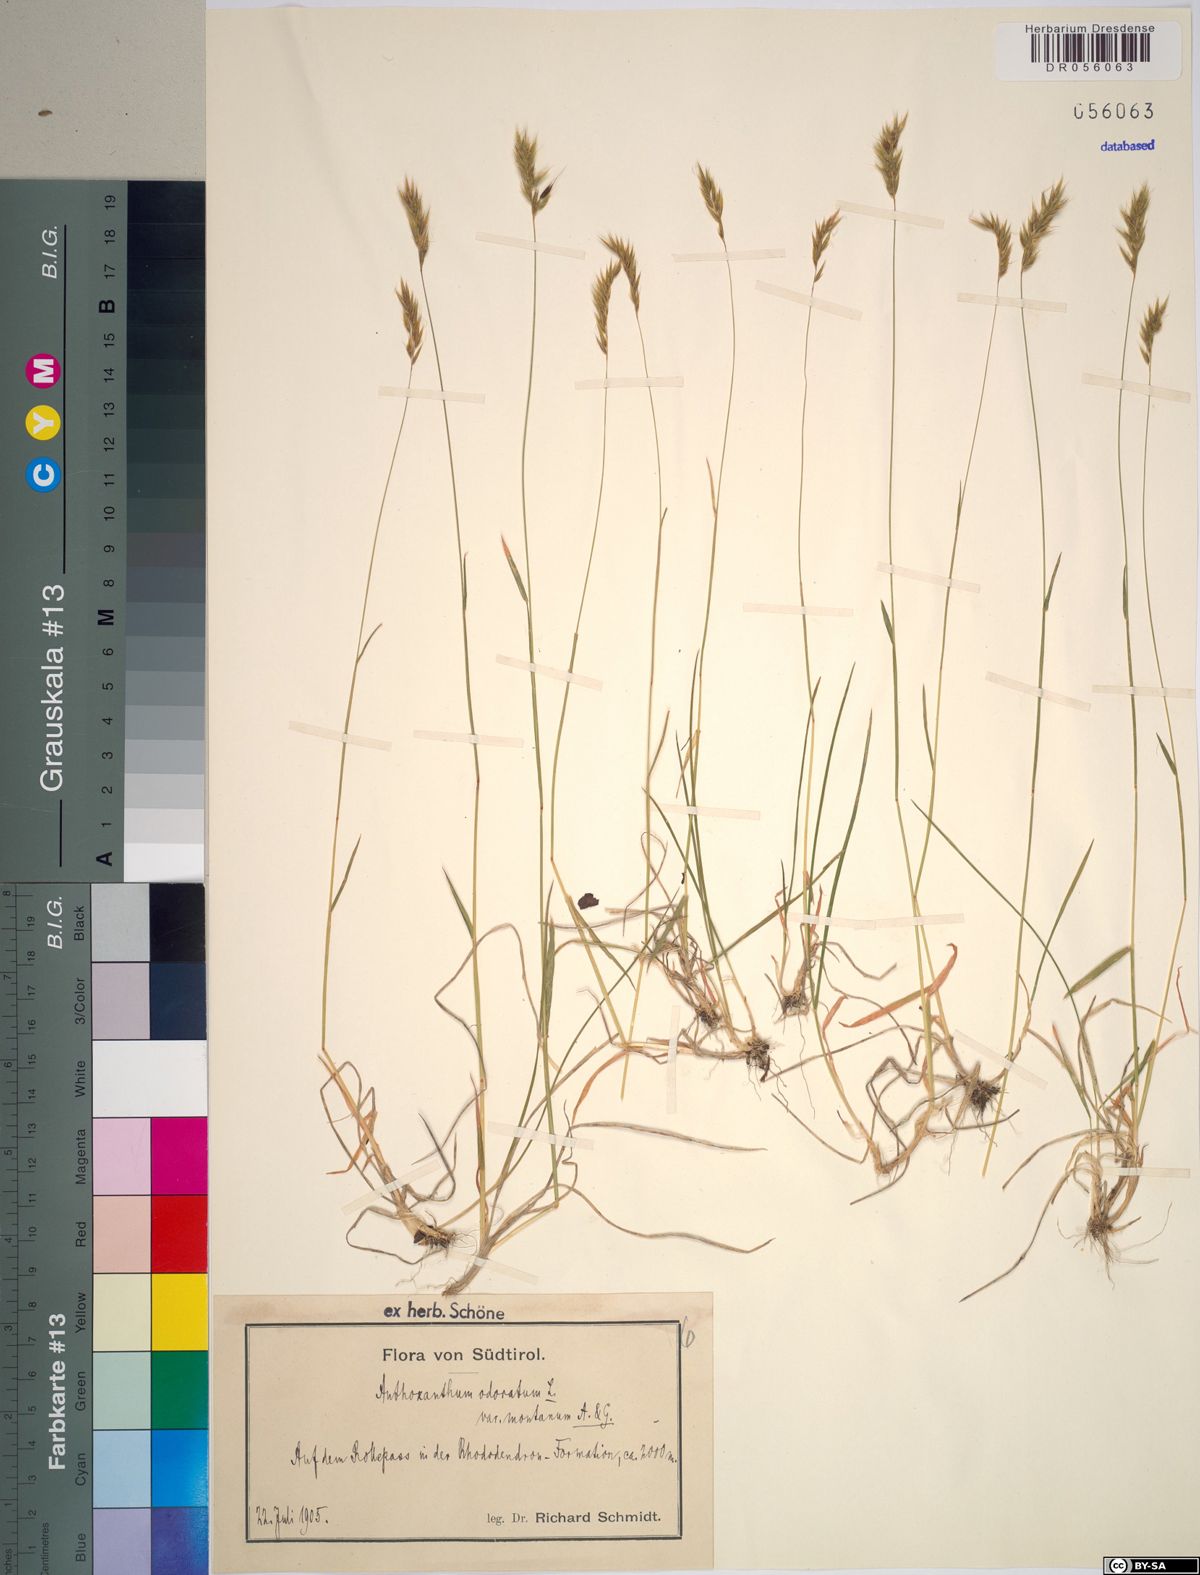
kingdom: Plantae
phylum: Tracheophyta
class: Liliopsida
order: Poales
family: Poaceae
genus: Anthoxanthum
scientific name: Anthoxanthum odoratum
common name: Sweet vernalgrass
